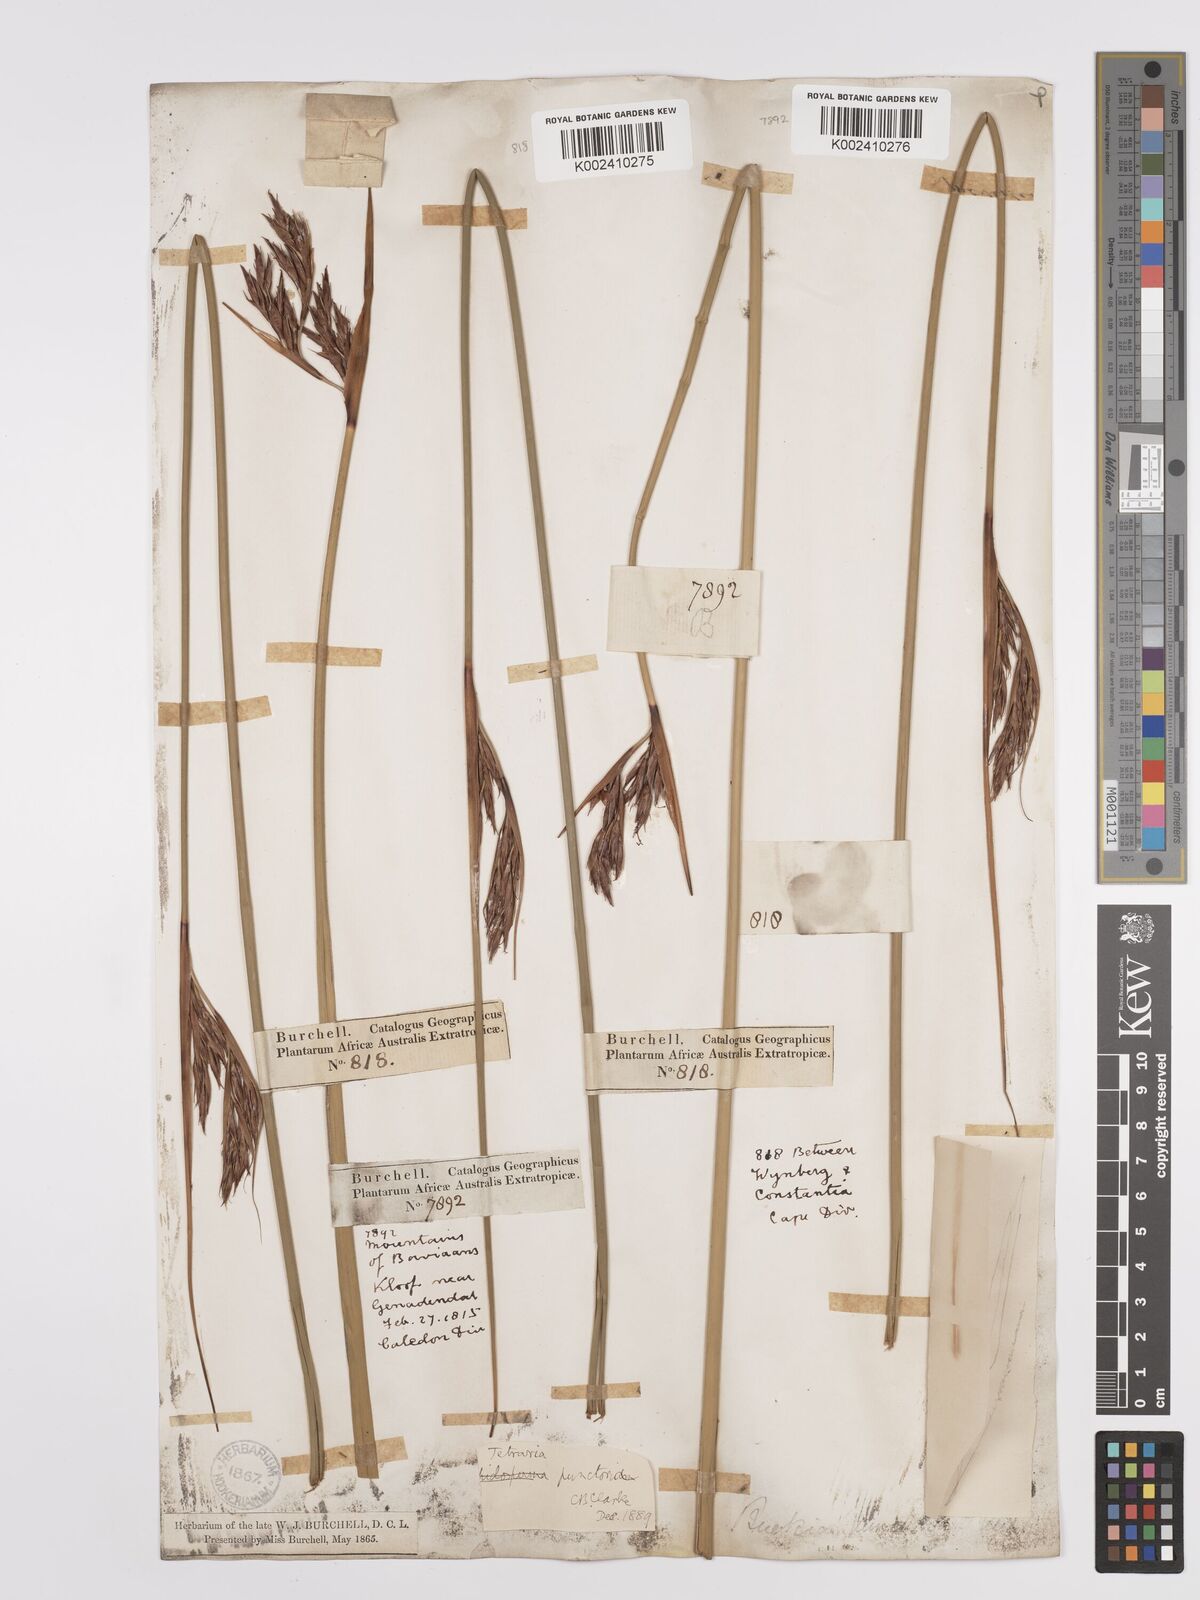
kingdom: Plantae
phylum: Tracheophyta
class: Liliopsida
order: Poales
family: Cyperaceae
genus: Neesenbeckia
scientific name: Neesenbeckia punctoria
